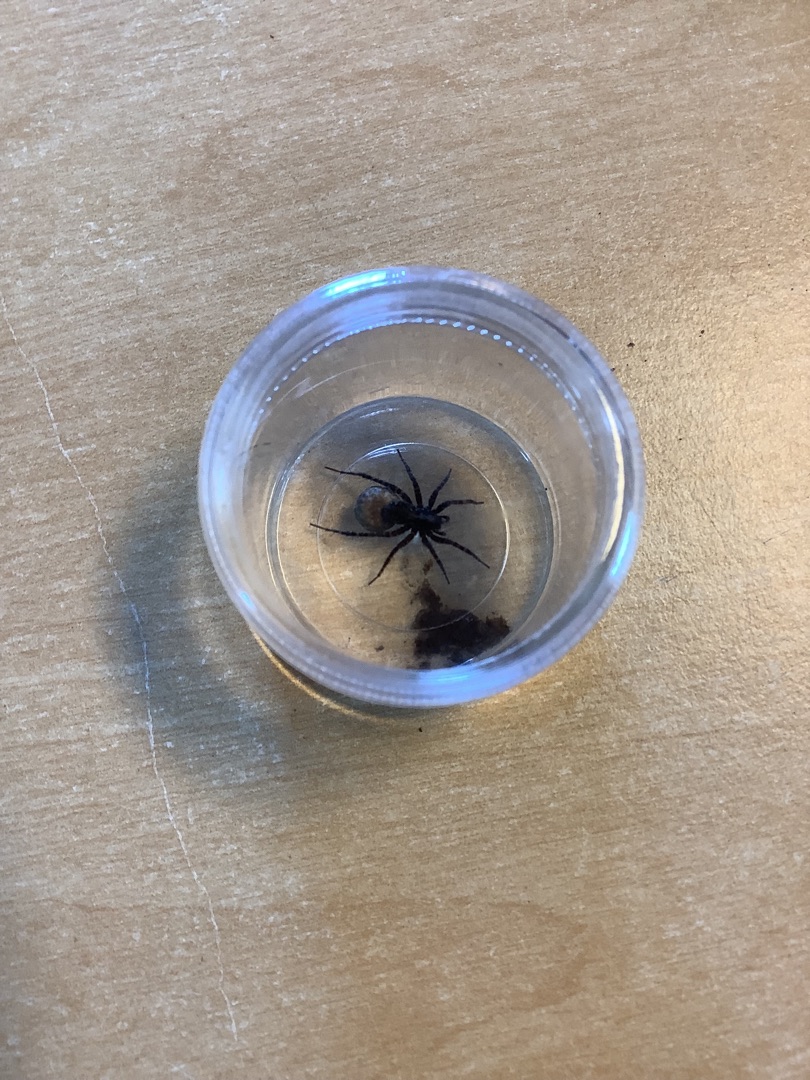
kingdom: Animalia
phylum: Arthropoda
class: Arachnida
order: Araneae
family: Lycosidae
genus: Pardosa
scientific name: Pardosa
